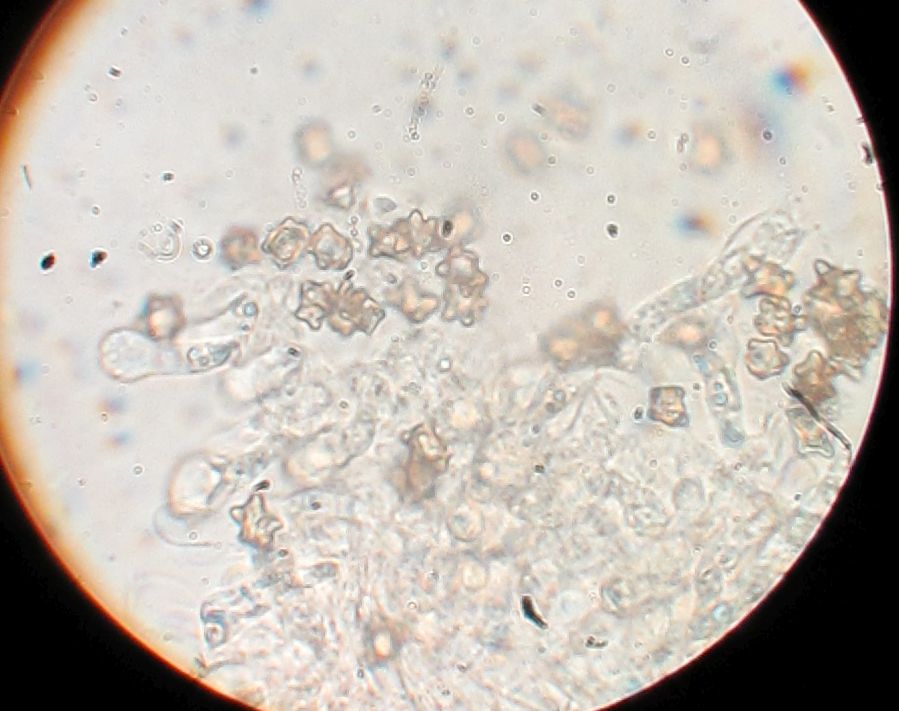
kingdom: Fungi
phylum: Basidiomycota
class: Agaricomycetes
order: Agaricales
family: Inocybaceae
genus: Inocybe
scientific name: Inocybe asterospora
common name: stjernesporet trævlhat
